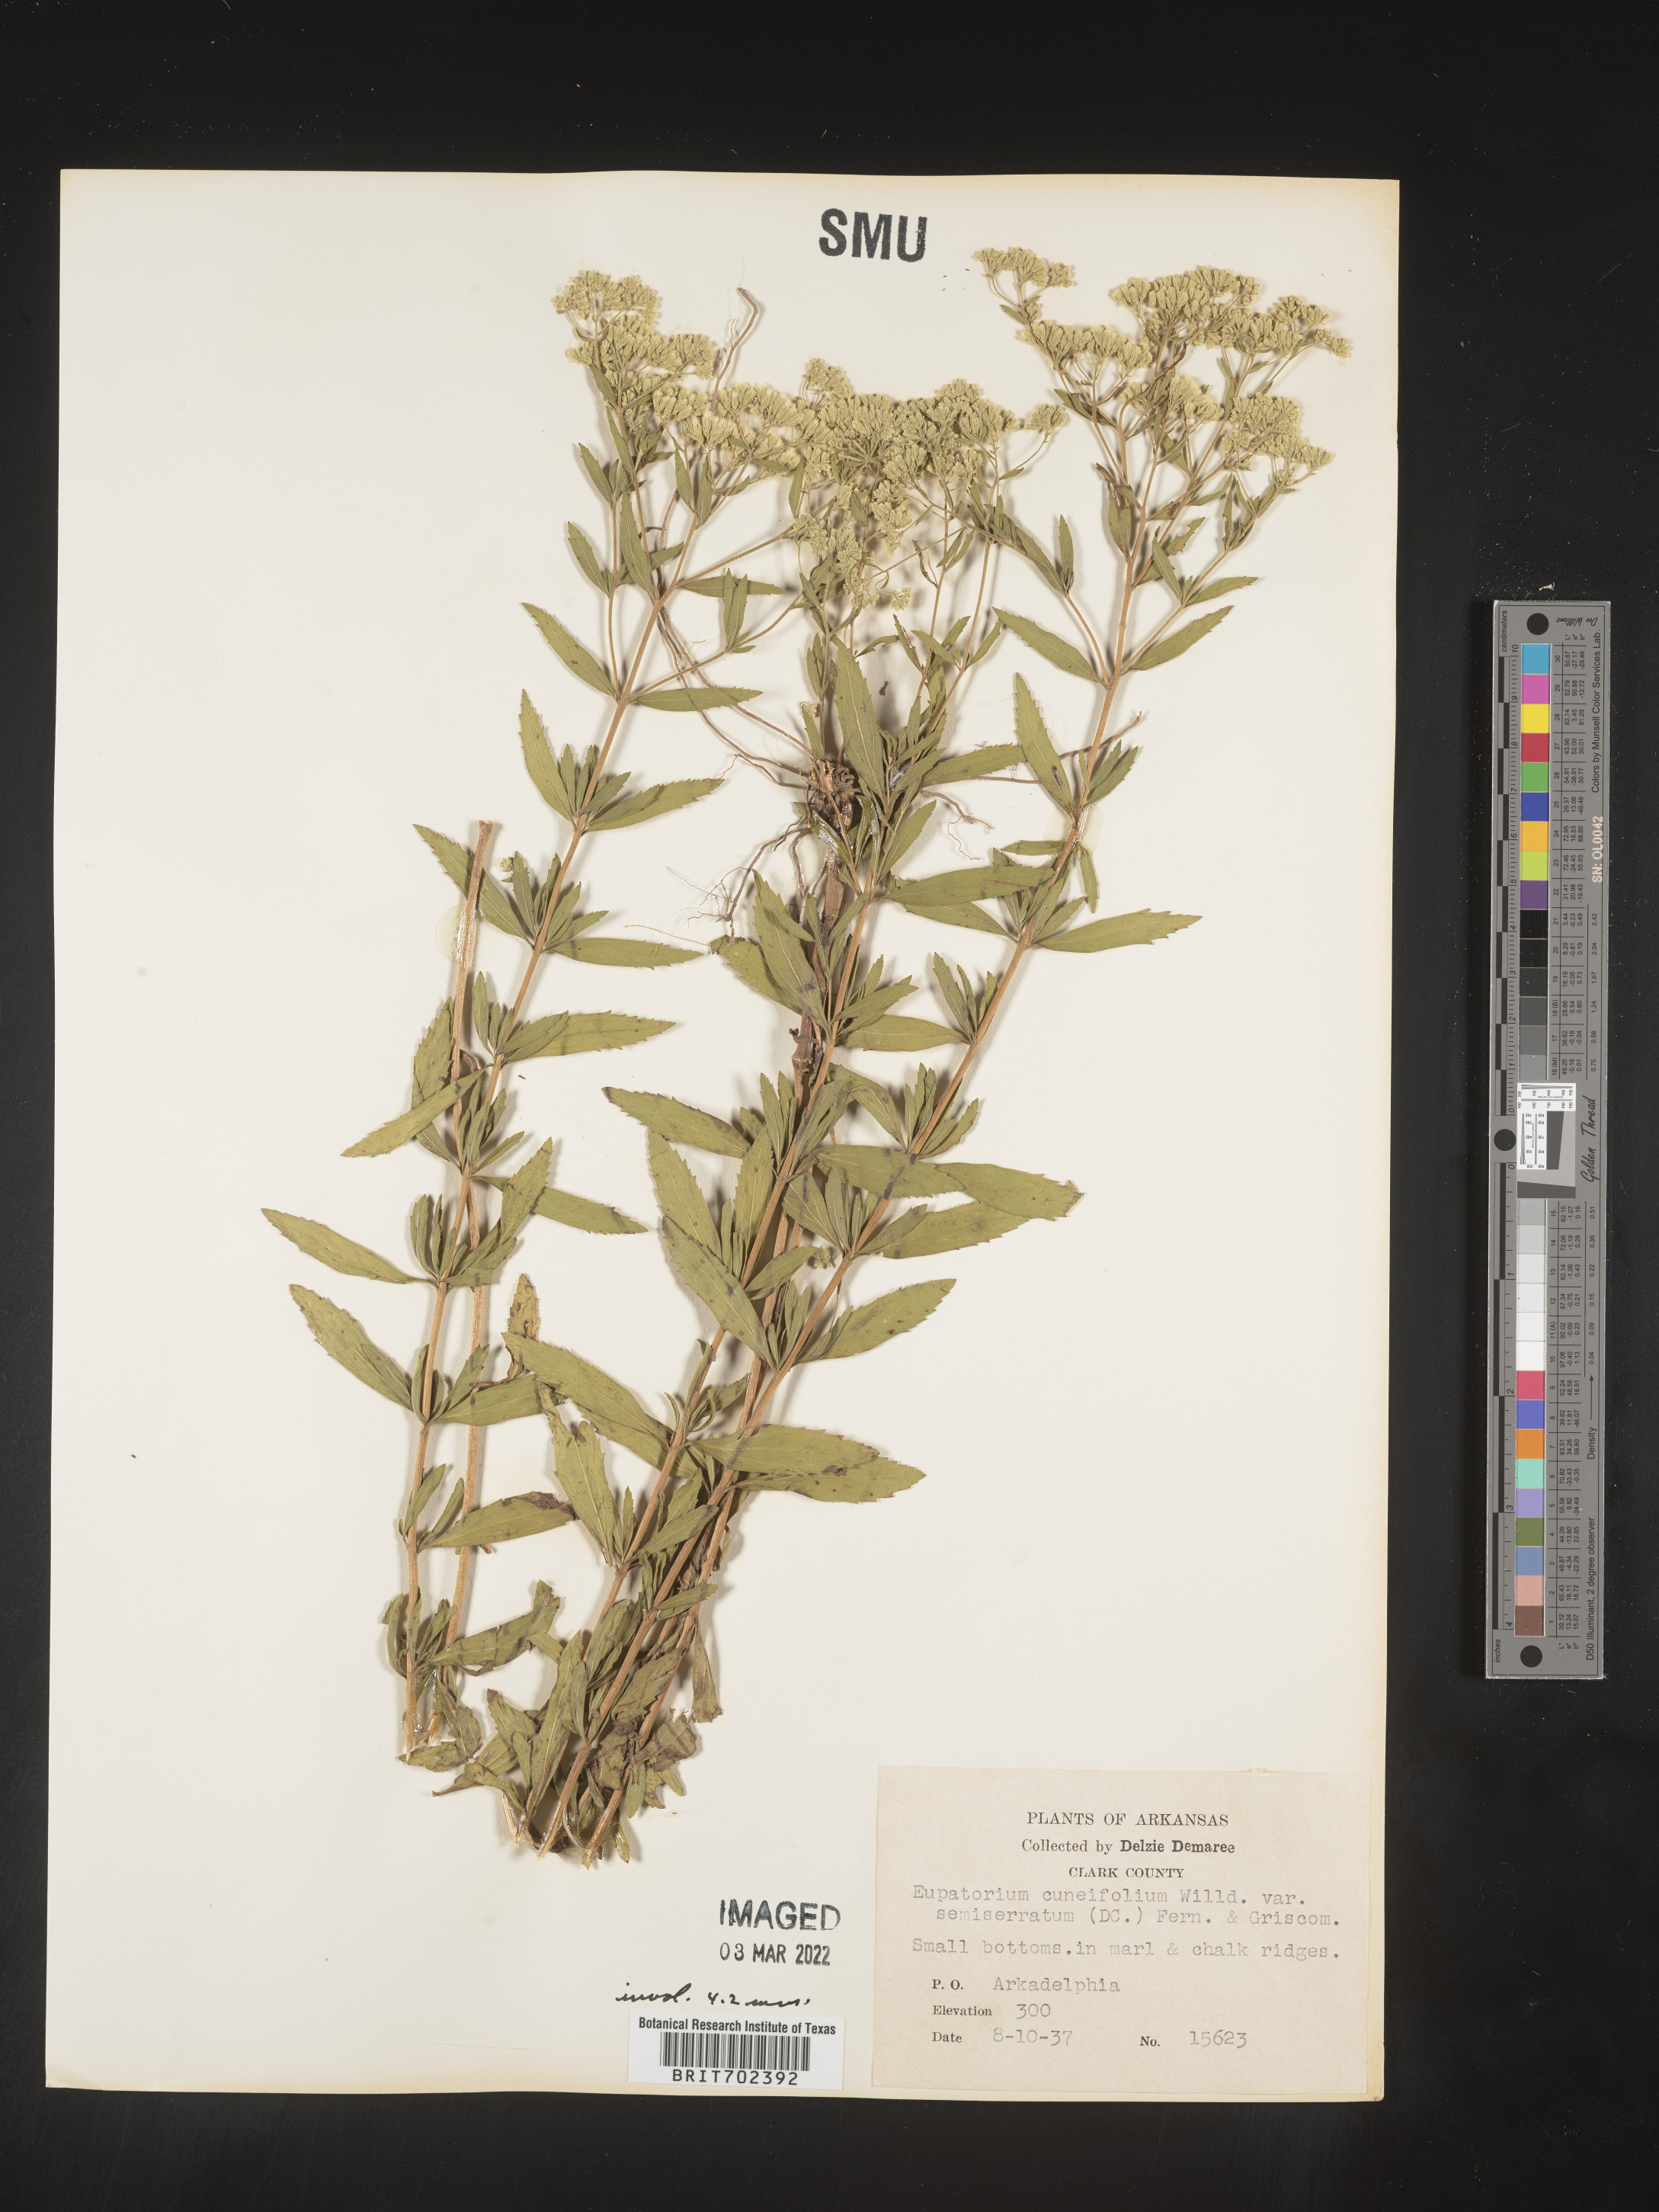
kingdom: Plantae
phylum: Tracheophyta
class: Magnoliopsida
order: Asterales
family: Asteraceae
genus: Eupatorium
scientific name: Eupatorium semiserratum
